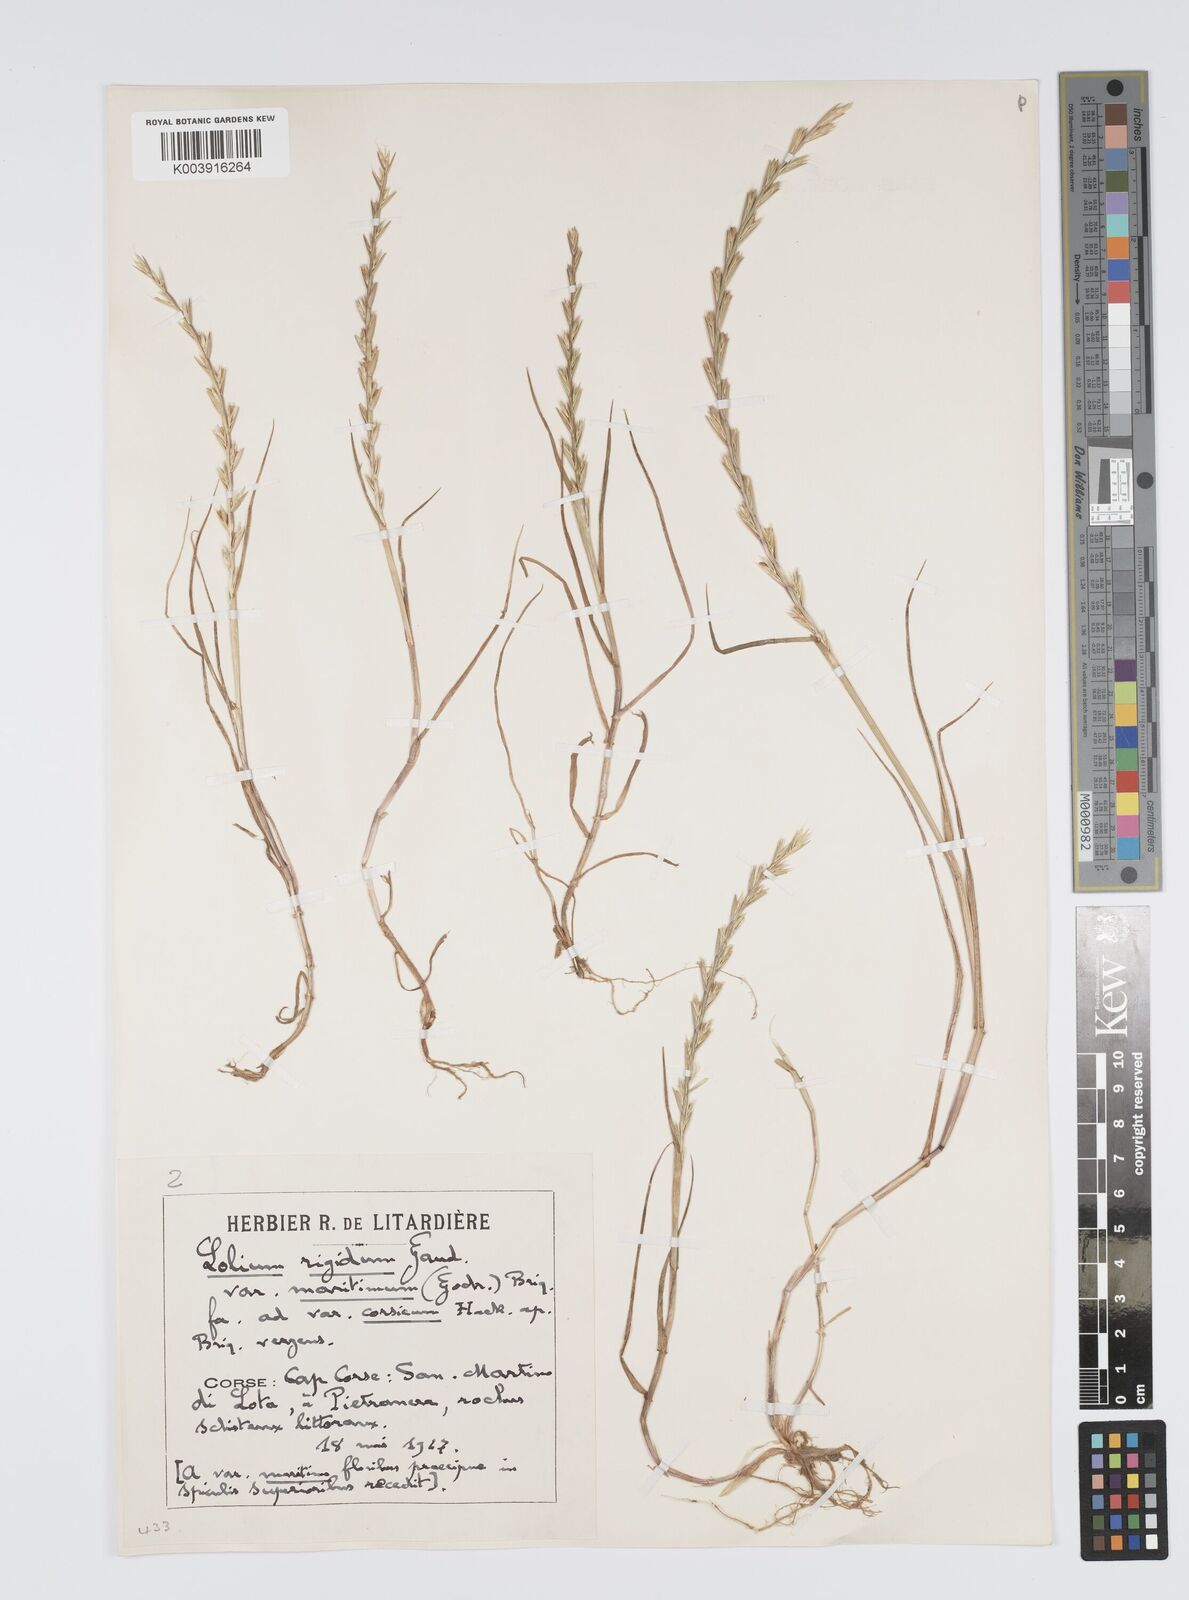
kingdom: Plantae
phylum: Tracheophyta
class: Liliopsida
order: Poales
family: Poaceae
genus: Lolium
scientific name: Lolium rigidum
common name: Wimmera ryegrass
